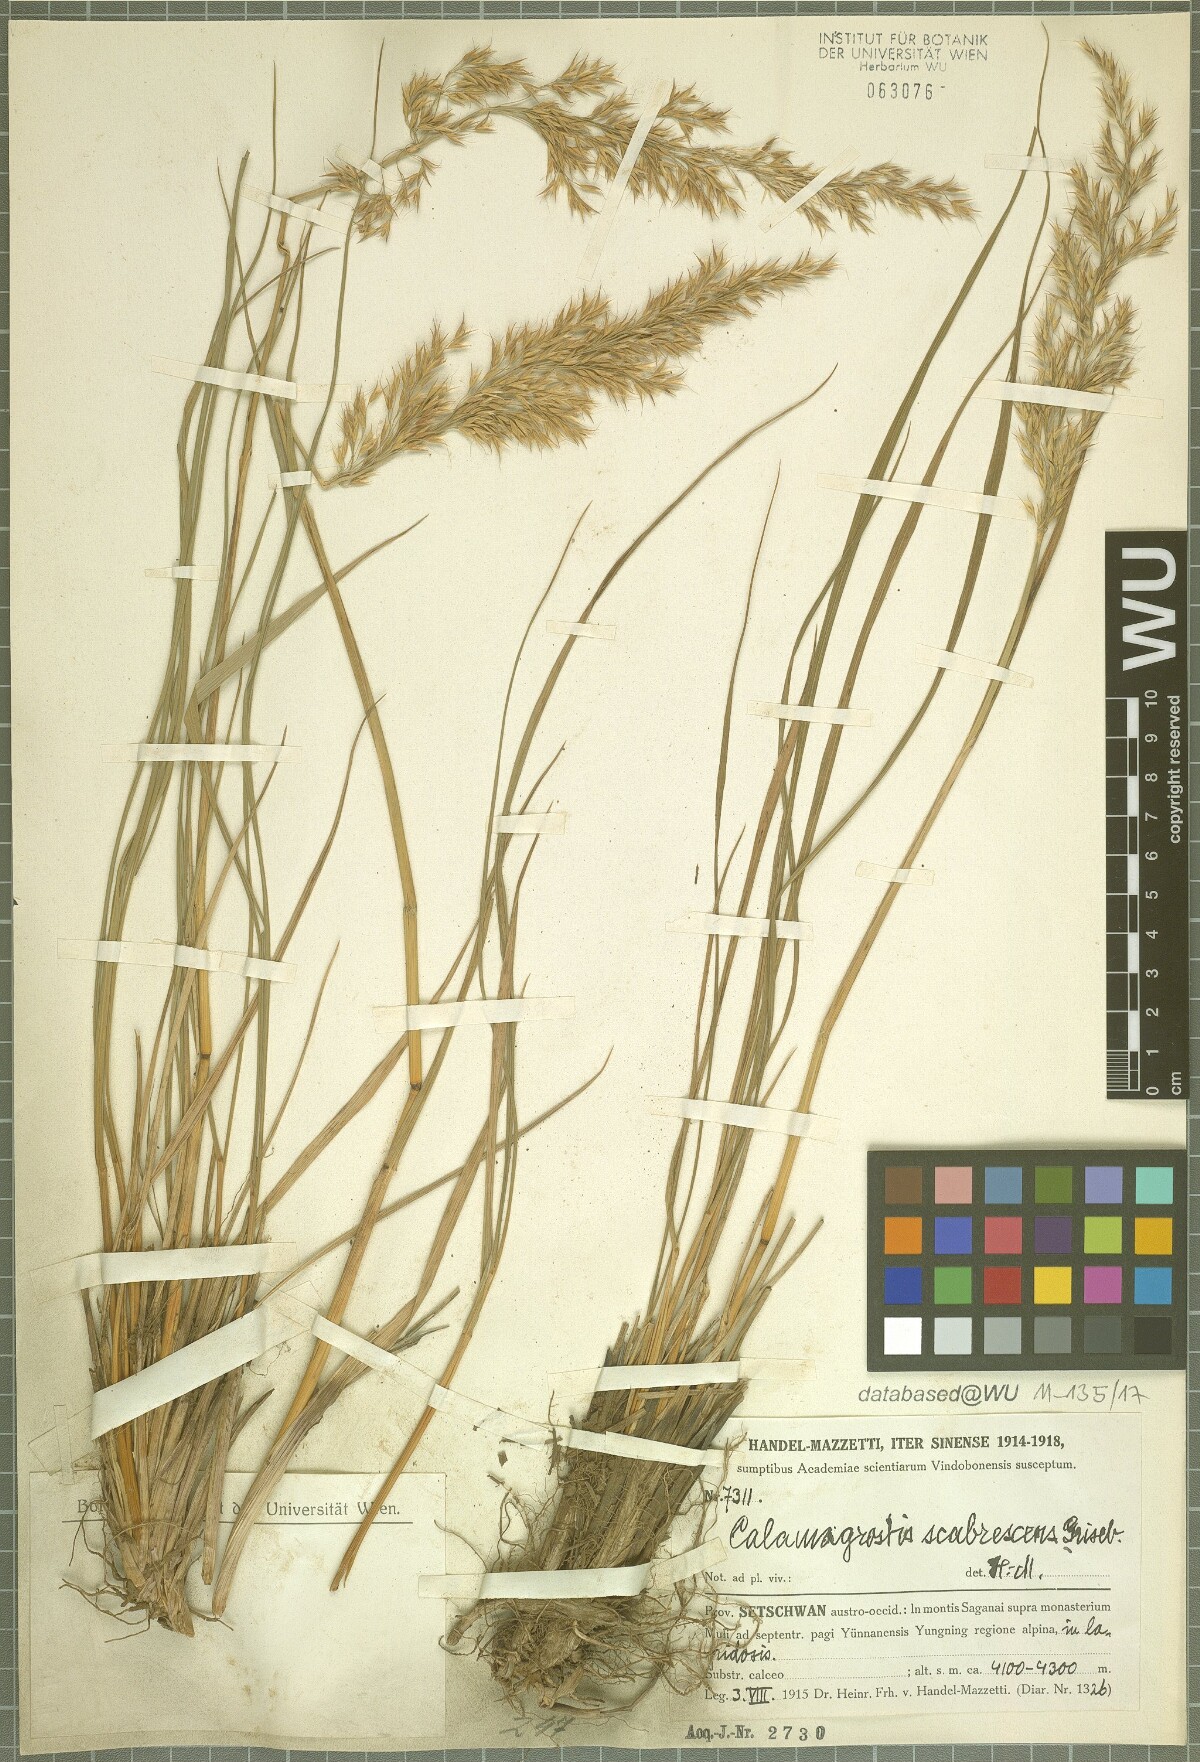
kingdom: Plantae
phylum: Tracheophyta
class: Liliopsida
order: Poales
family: Poaceae
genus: Calamagrostis
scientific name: Calamagrostis scabrescens
